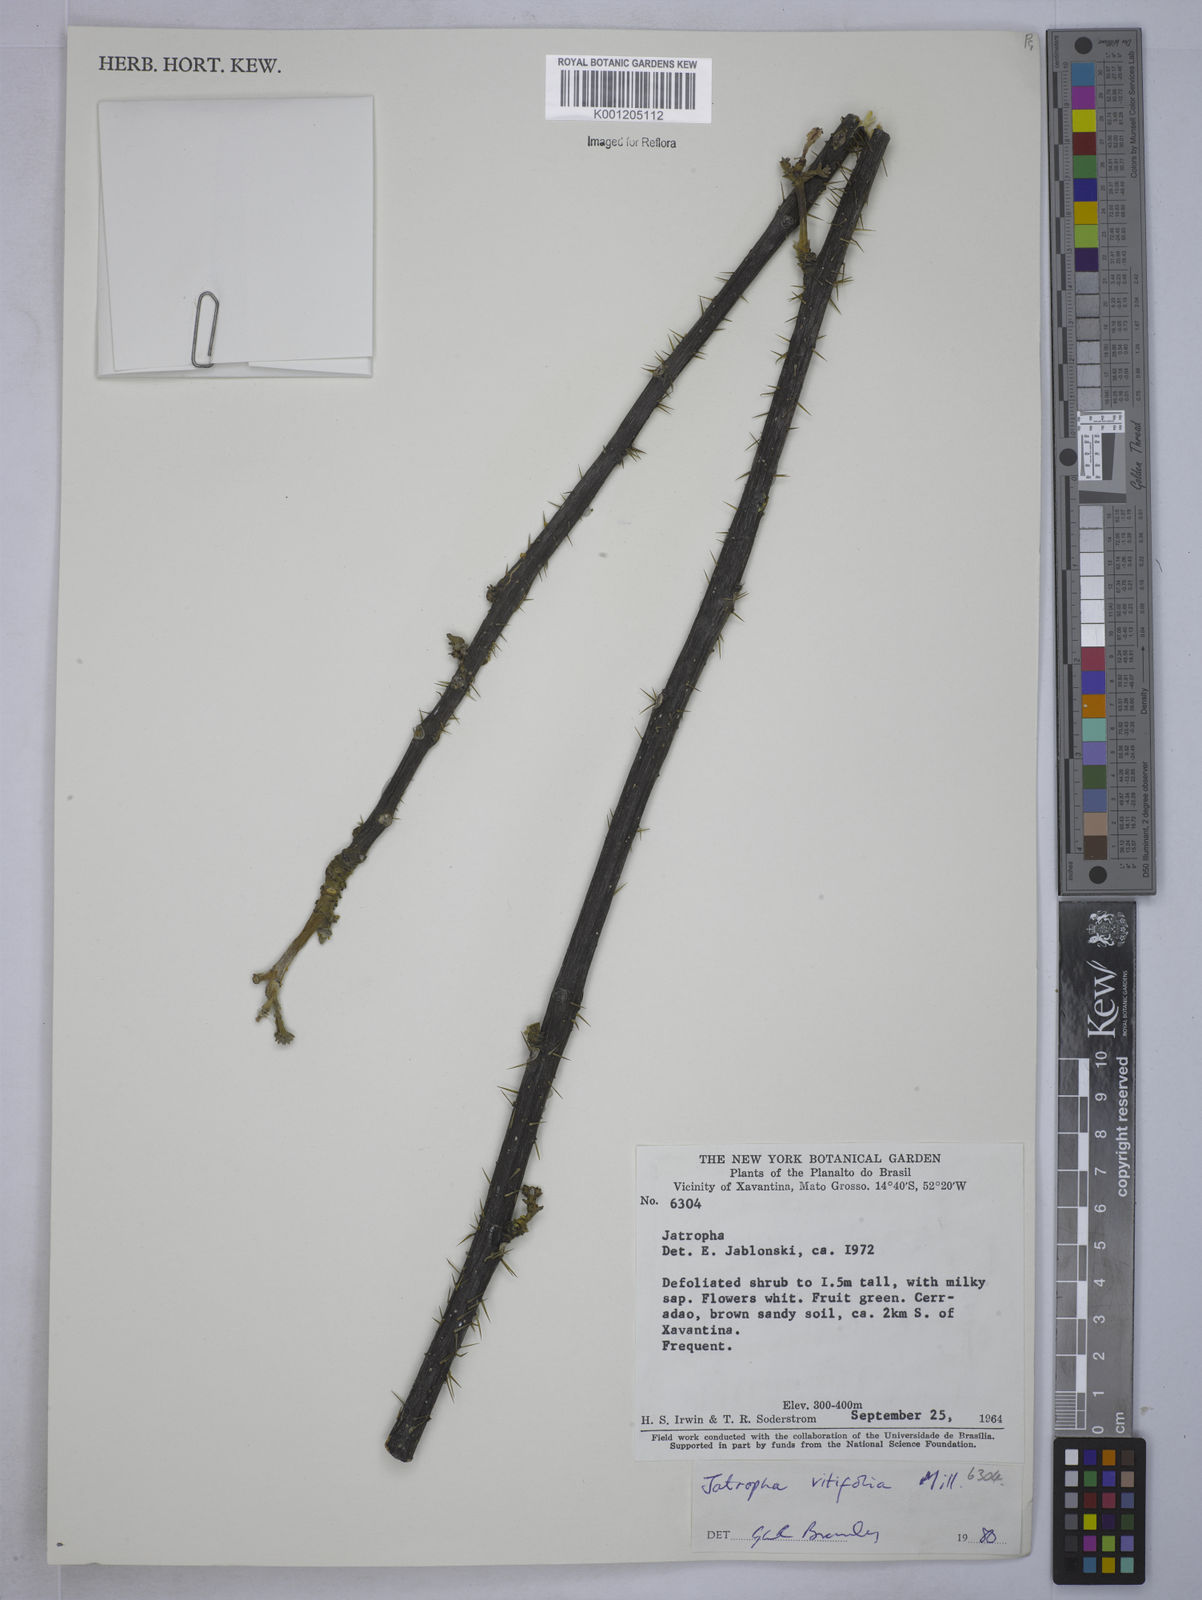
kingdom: Plantae
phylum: Tracheophyta
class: Magnoliopsida
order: Malpighiales
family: Euphorbiaceae
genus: Cnidoscolus
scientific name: Cnidoscolus vitifolius
